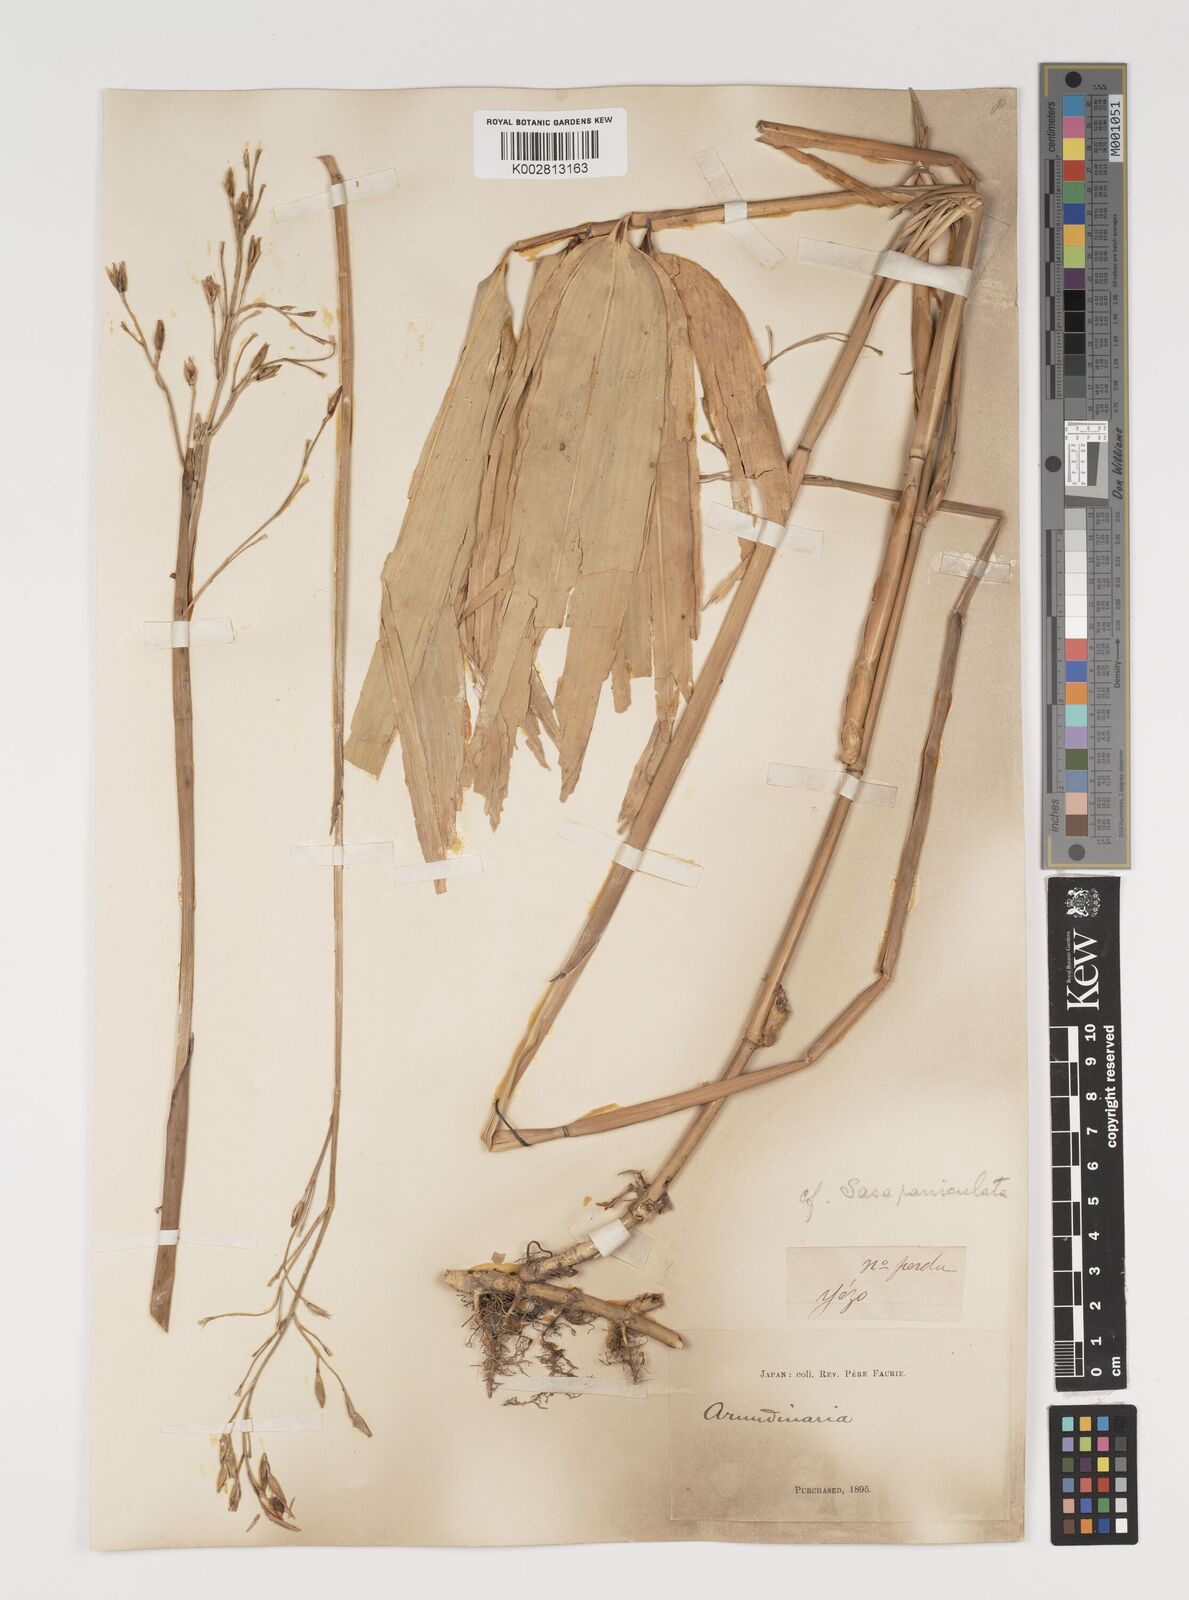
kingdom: Plantae
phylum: Tracheophyta
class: Liliopsida
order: Poales
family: Poaceae
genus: Sasa
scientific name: Sasa palmata
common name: Broad-leaved bamboo
